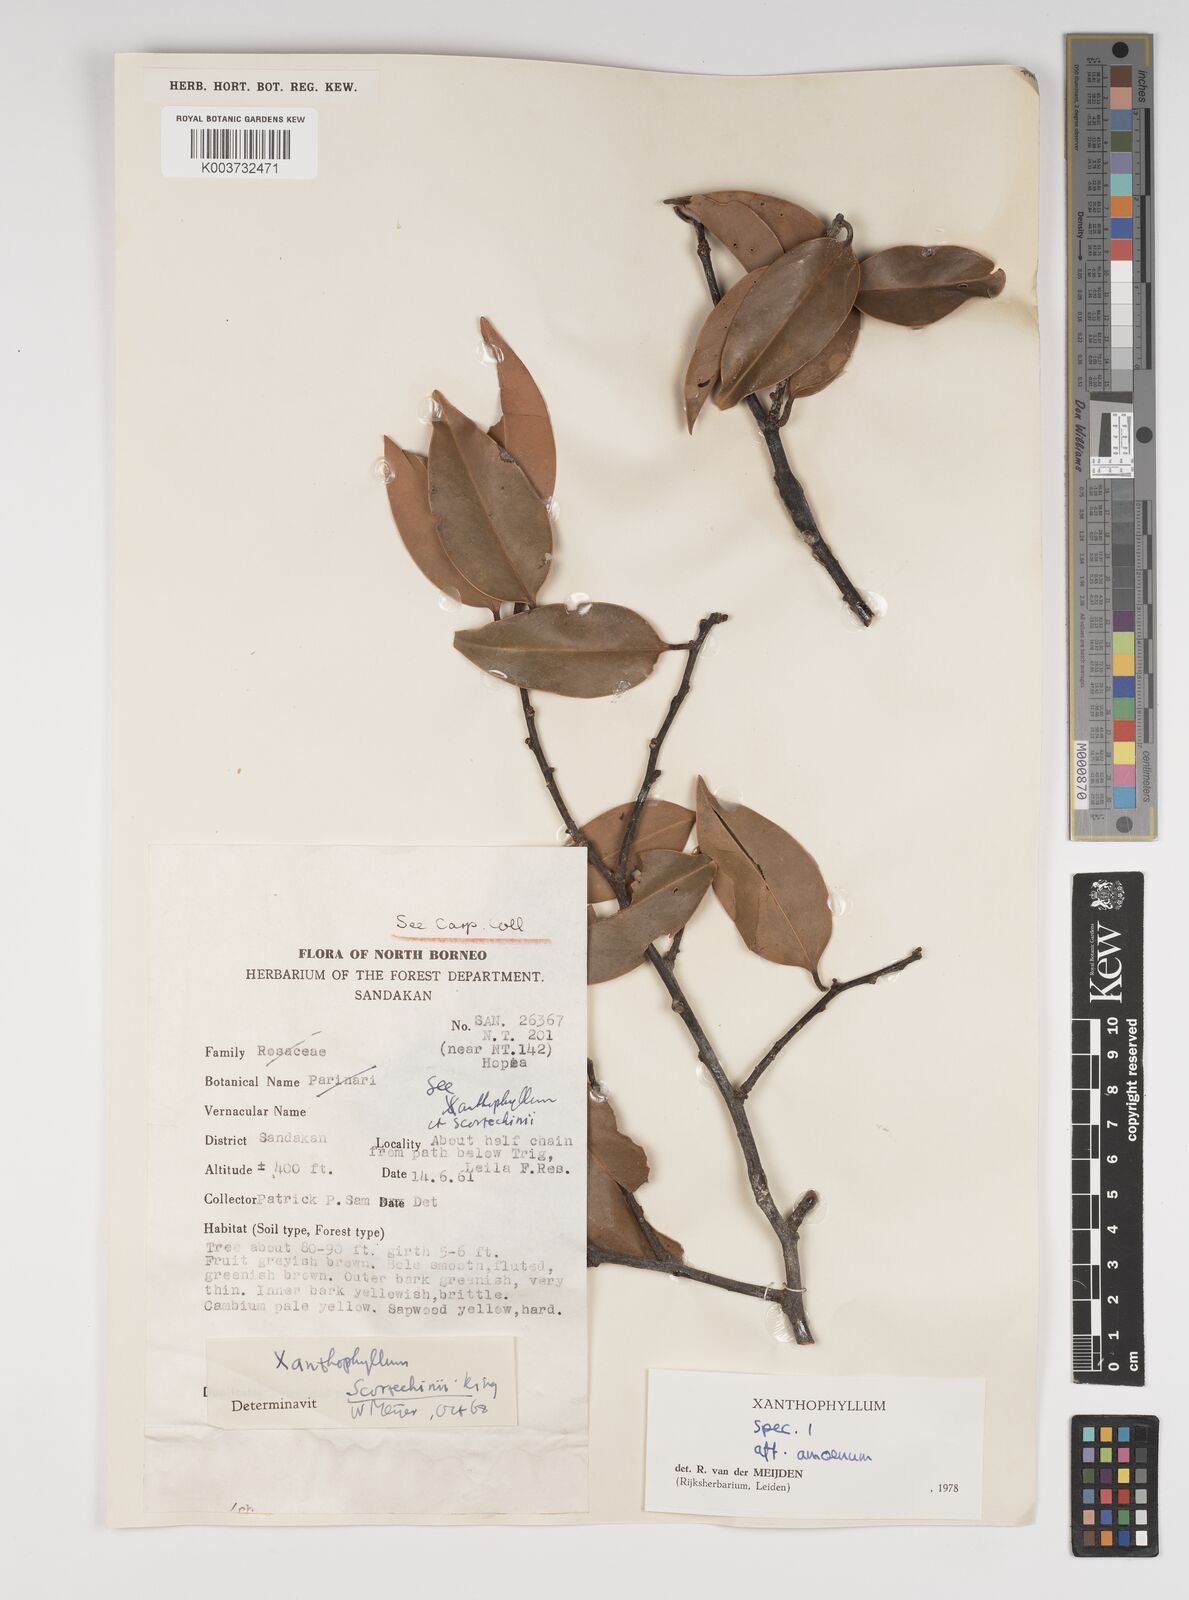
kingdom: Plantae
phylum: Tracheophyta
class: Magnoliopsida
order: Fabales
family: Polygalaceae
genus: Xanthophyllum
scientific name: Xanthophyllum stipitatum
